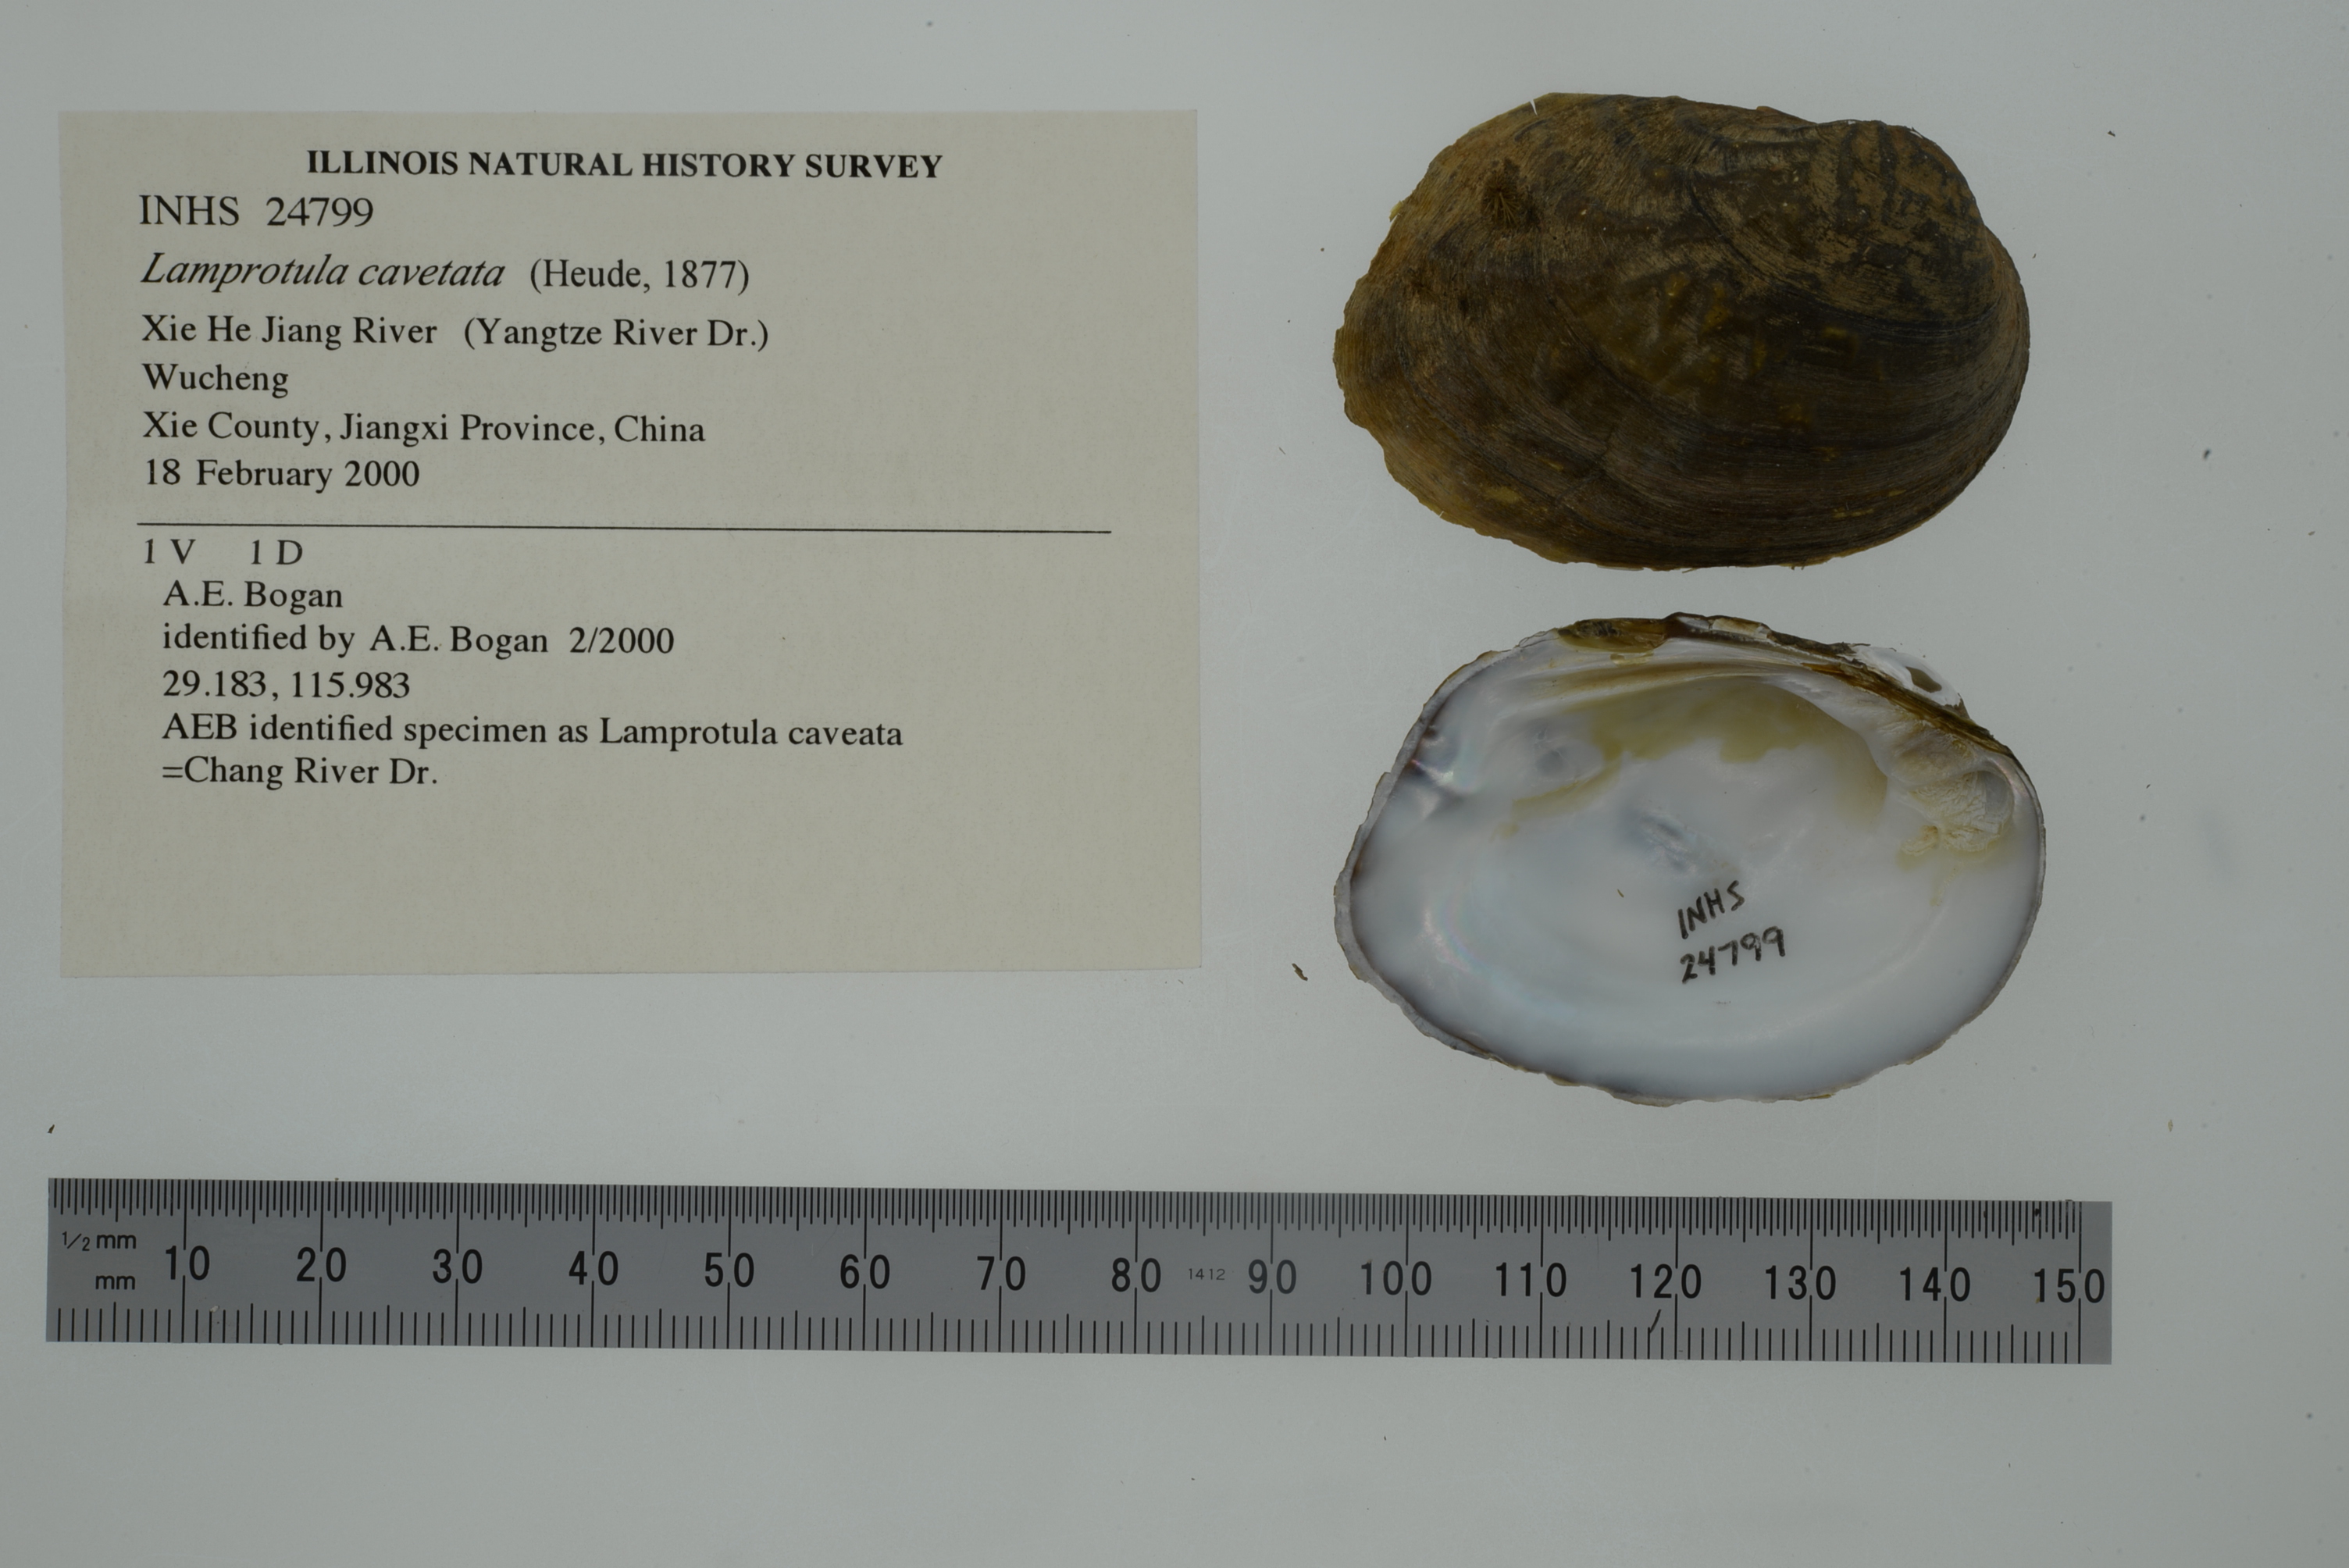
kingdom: Animalia
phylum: Mollusca
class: Bivalvia
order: Unionida
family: Unionidae
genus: Lamprotula
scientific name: Lamprotula caveata
